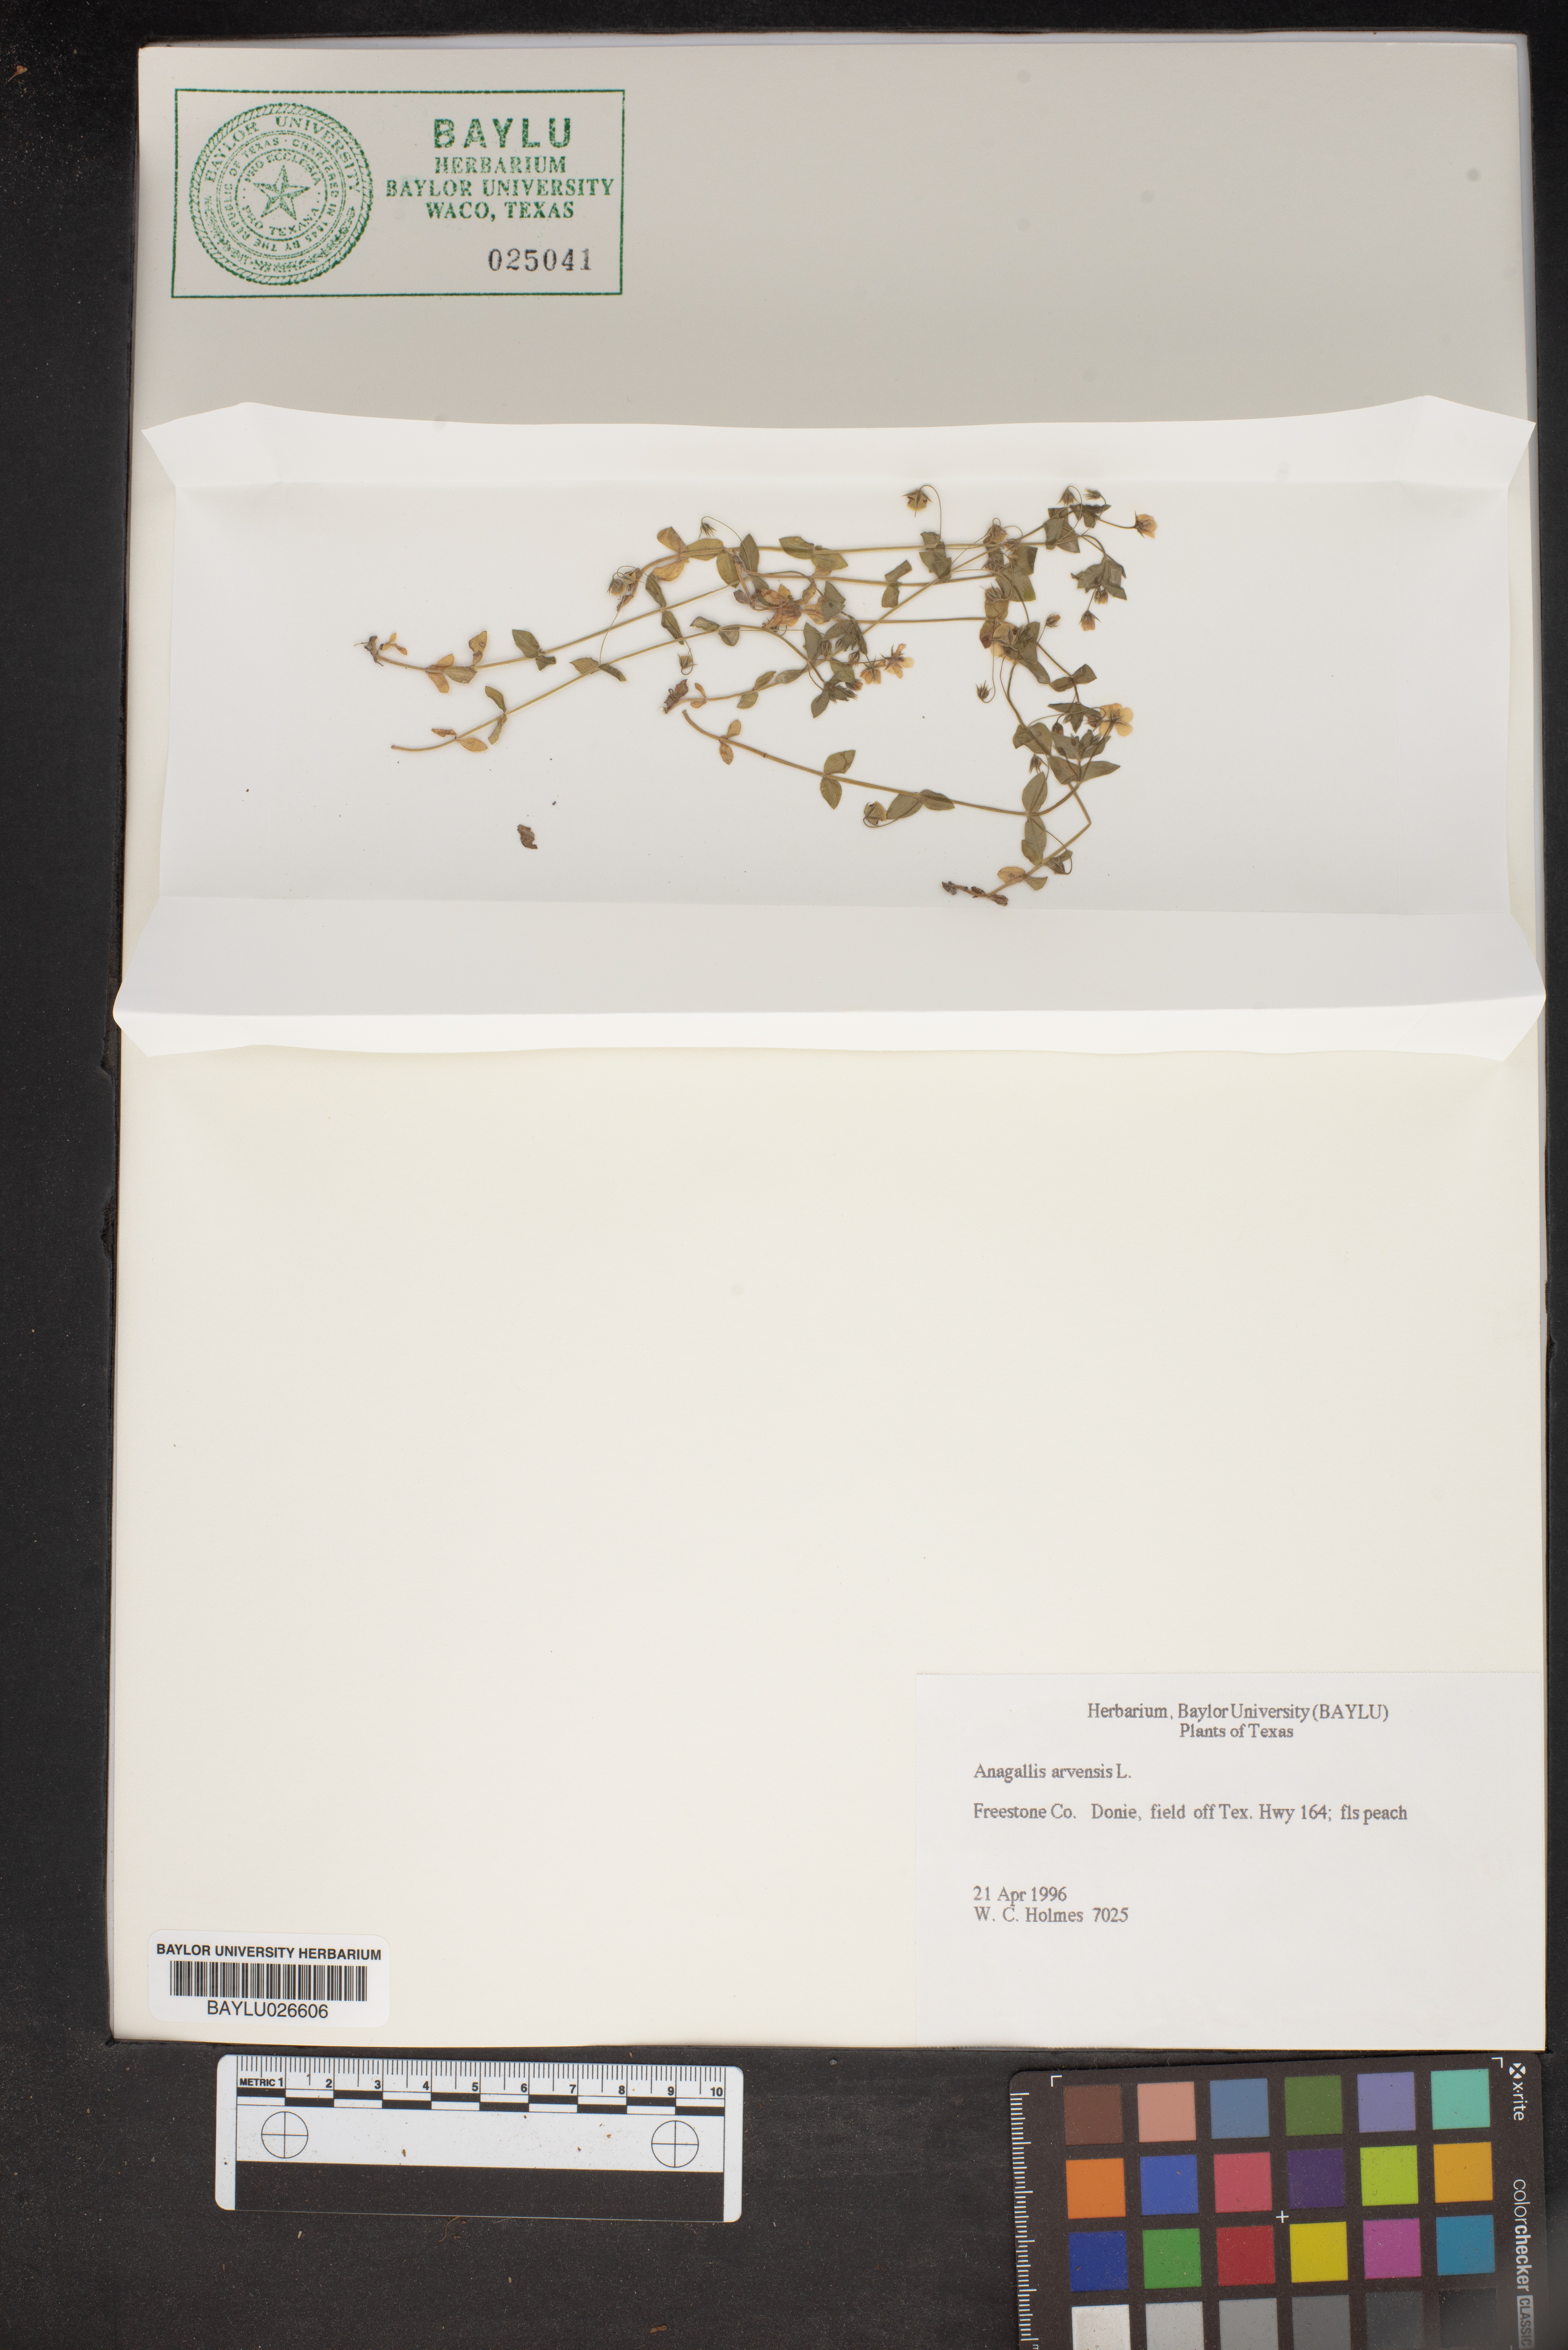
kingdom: Plantae
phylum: Tracheophyta
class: Magnoliopsida
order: Ericales
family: Primulaceae
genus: Lysimachia
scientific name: Lysimachia arvensis
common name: Scarlet pimpernel
